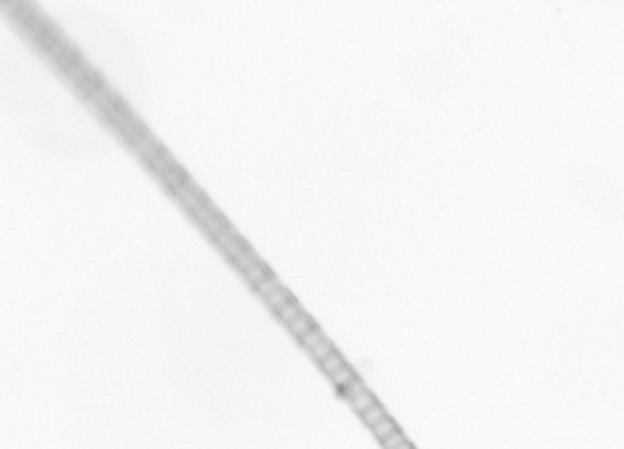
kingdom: Chromista
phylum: Ochrophyta
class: Bacillariophyceae
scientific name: Bacillariophyceae
